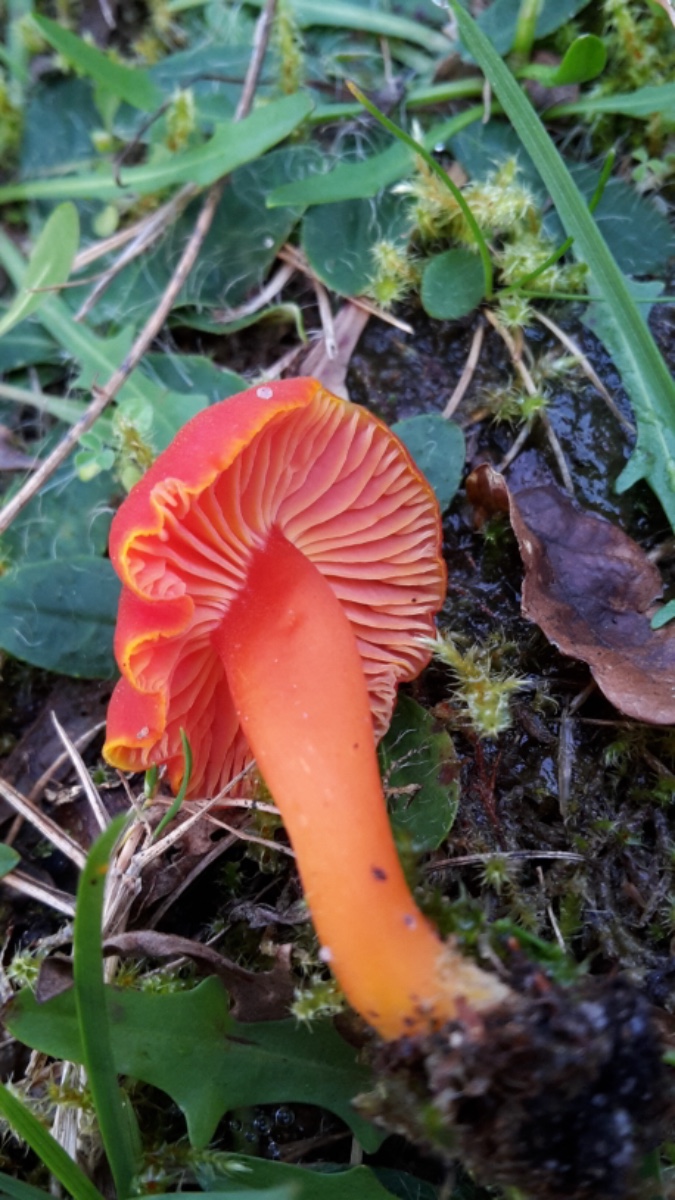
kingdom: Fungi
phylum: Basidiomycota
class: Agaricomycetes
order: Agaricales
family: Hygrophoraceae
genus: Hygrocybe
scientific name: Hygrocybe miniata
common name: mønje-vokshat
